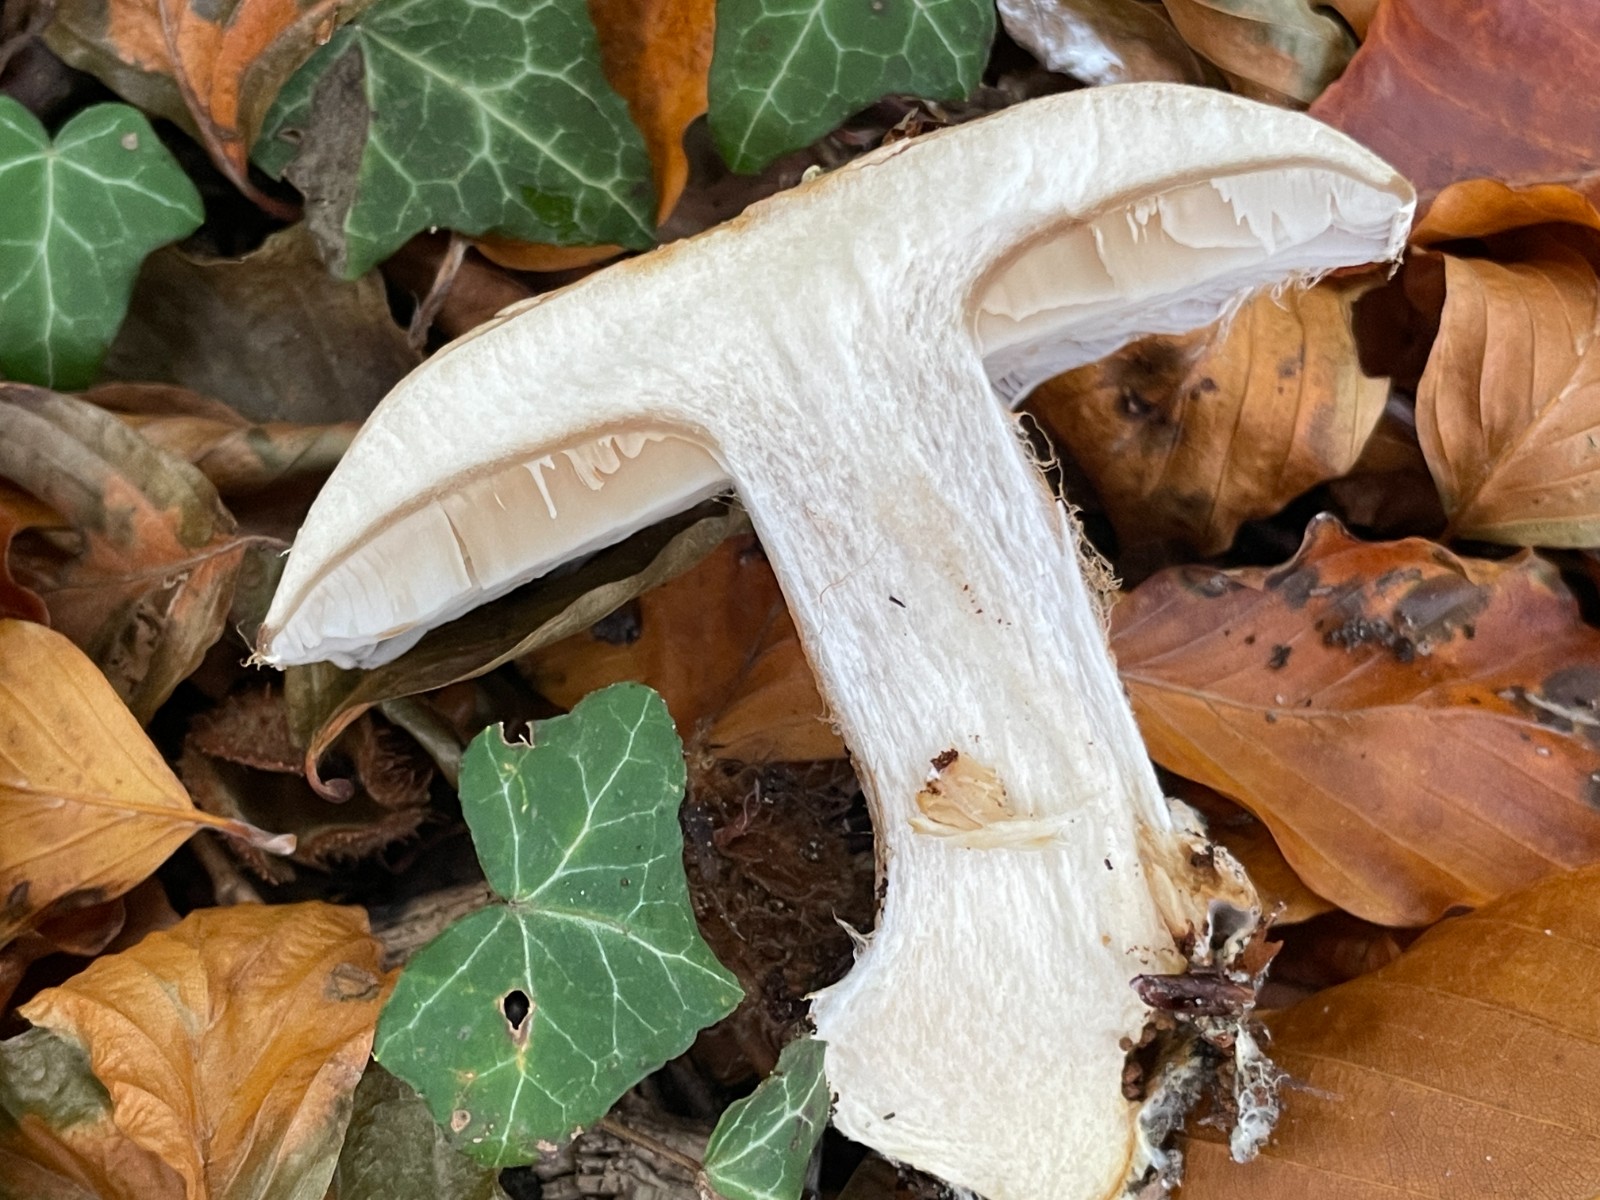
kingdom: Fungi
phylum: Basidiomycota
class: Agaricomycetes
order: Agaricales
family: Cortinariaceae
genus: Cortinarius
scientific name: Cortinarius foetens
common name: stribet slørhat
